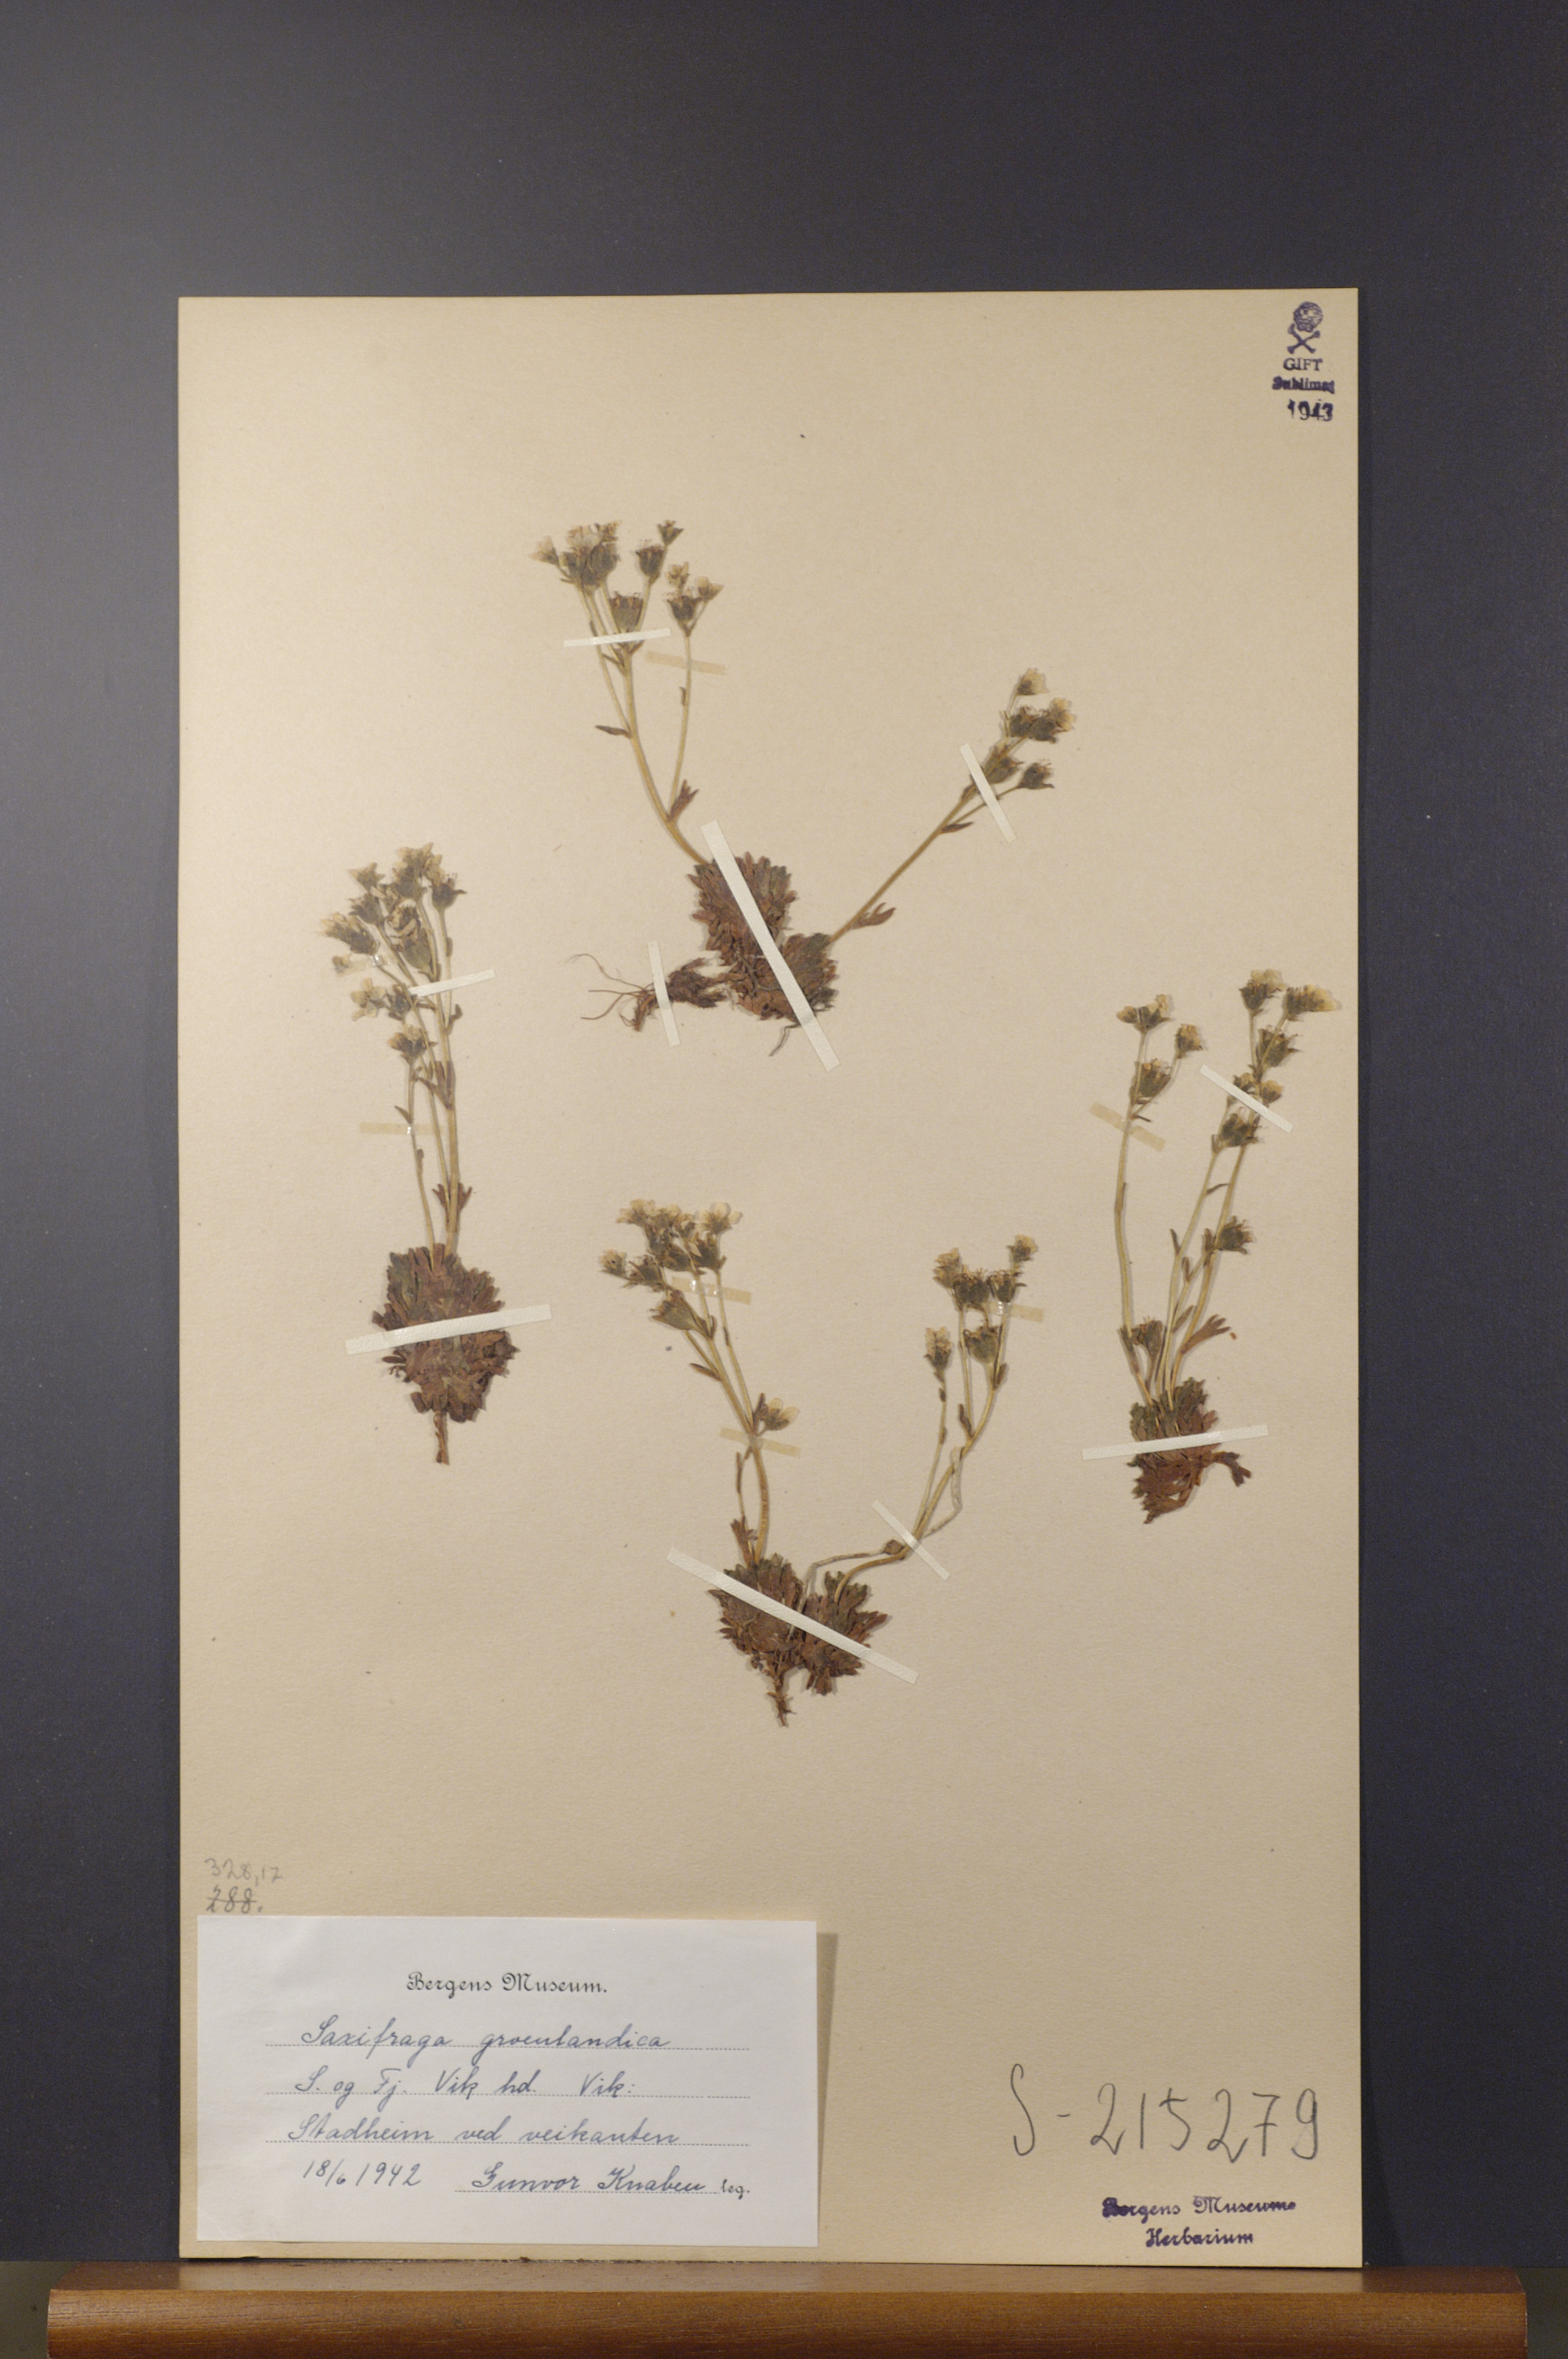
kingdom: Plantae
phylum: Tracheophyta
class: Magnoliopsida
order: Saxifragales
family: Saxifragaceae
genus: Saxifraga
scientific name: Saxifraga cespitosa
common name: Tufted saxifrage
